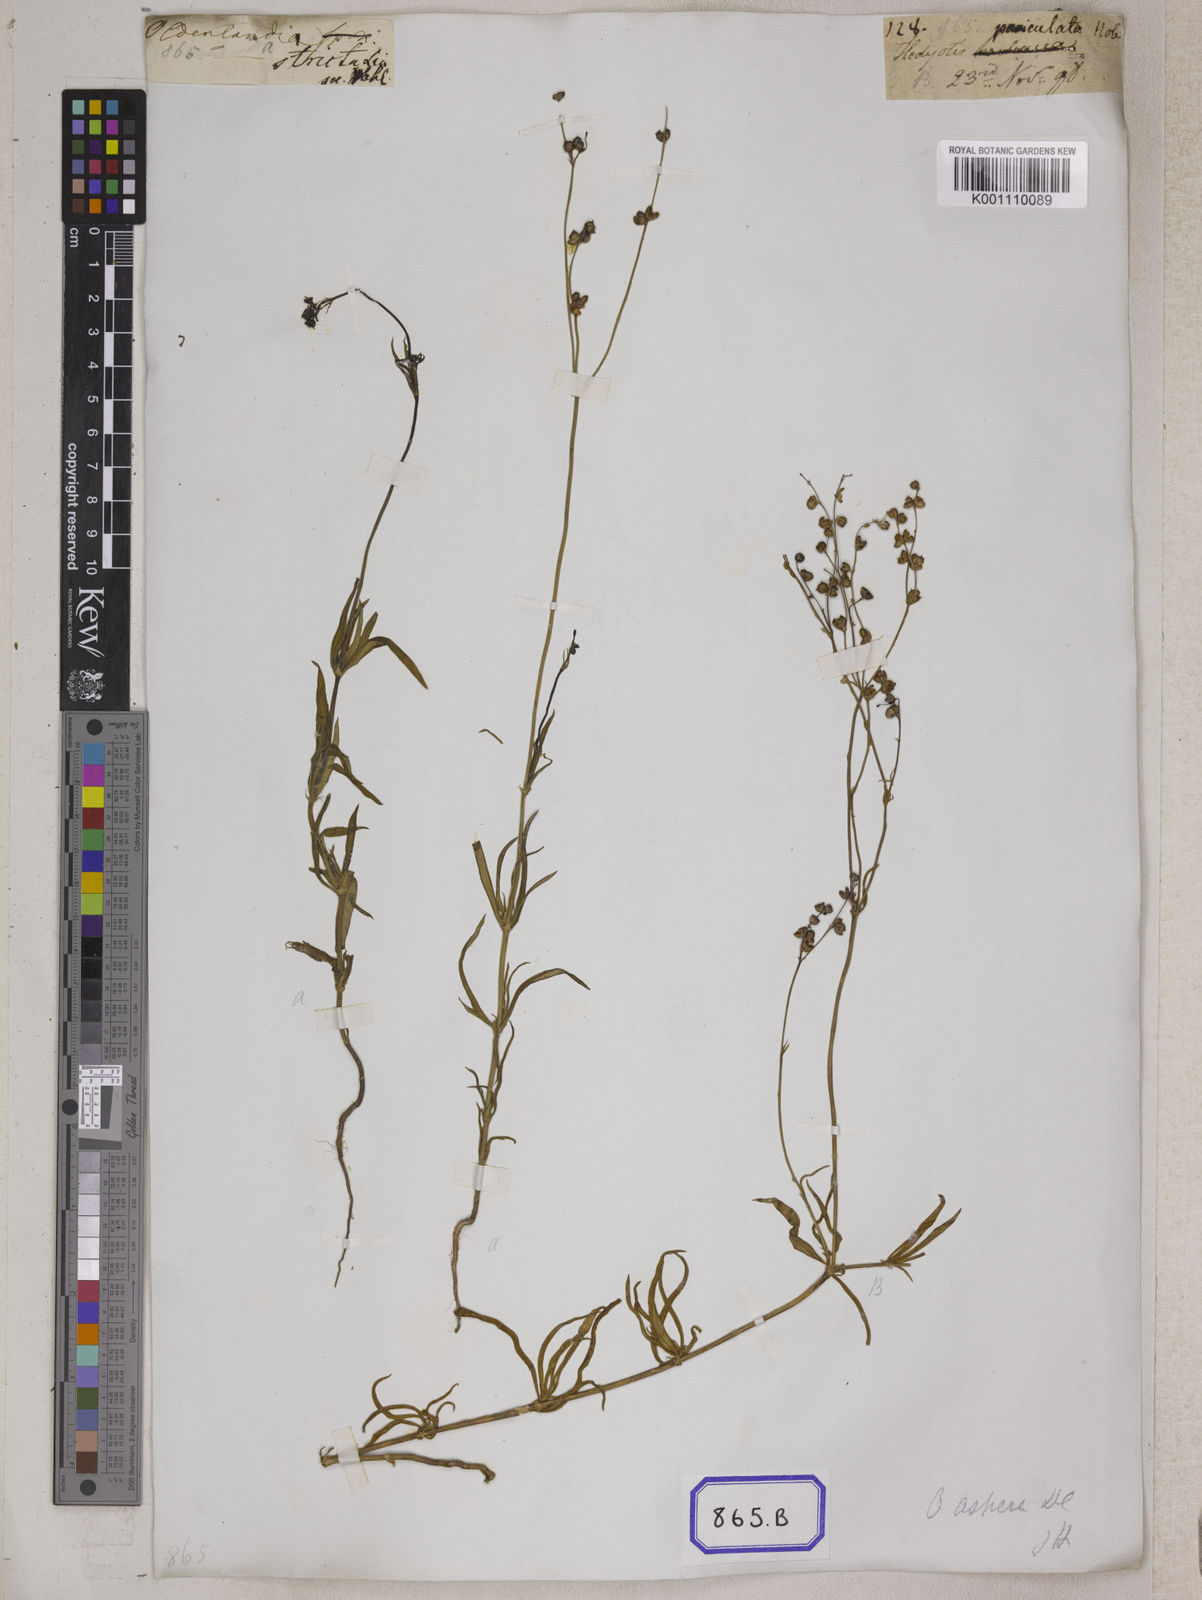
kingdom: Plantae
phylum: Tracheophyta
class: Magnoliopsida
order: Gentianales
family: Rubiaceae
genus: Hedyotis
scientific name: Hedyotis
